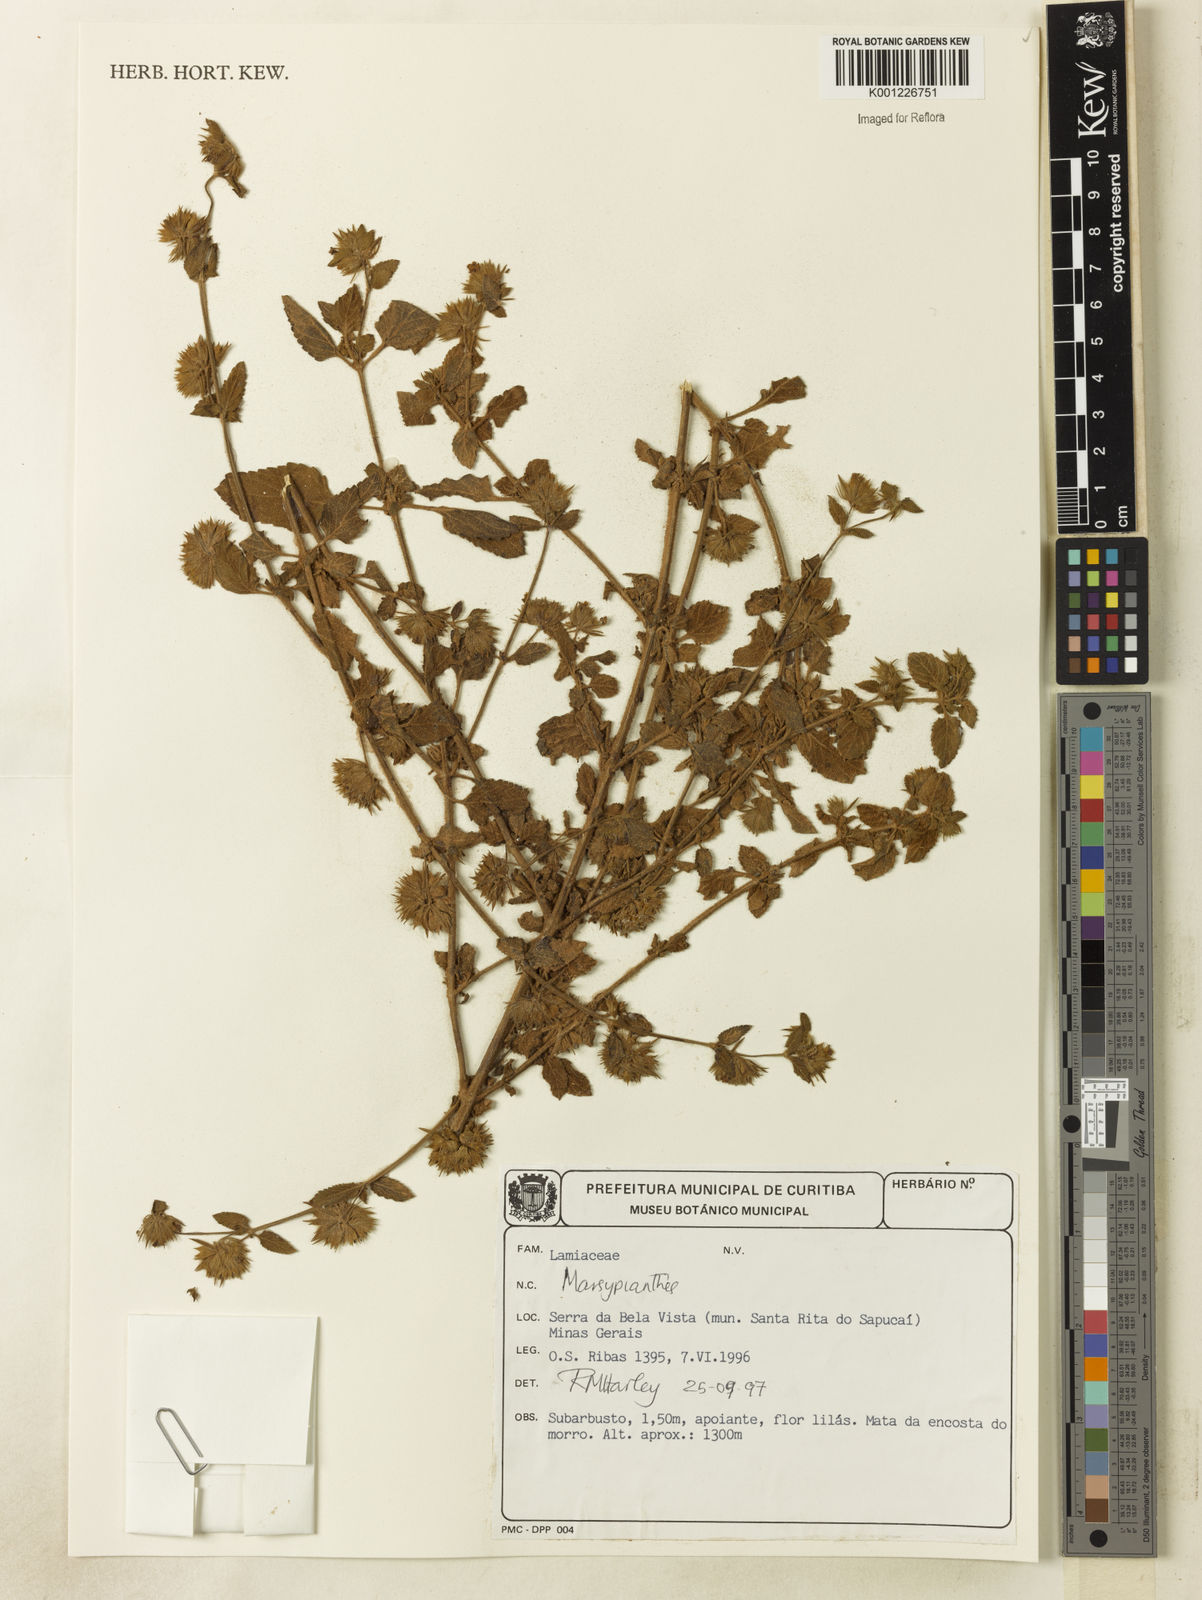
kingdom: Plantae
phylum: Tracheophyta
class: Magnoliopsida
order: Lamiales
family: Lamiaceae
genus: Marsypianthes
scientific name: Marsypianthes
